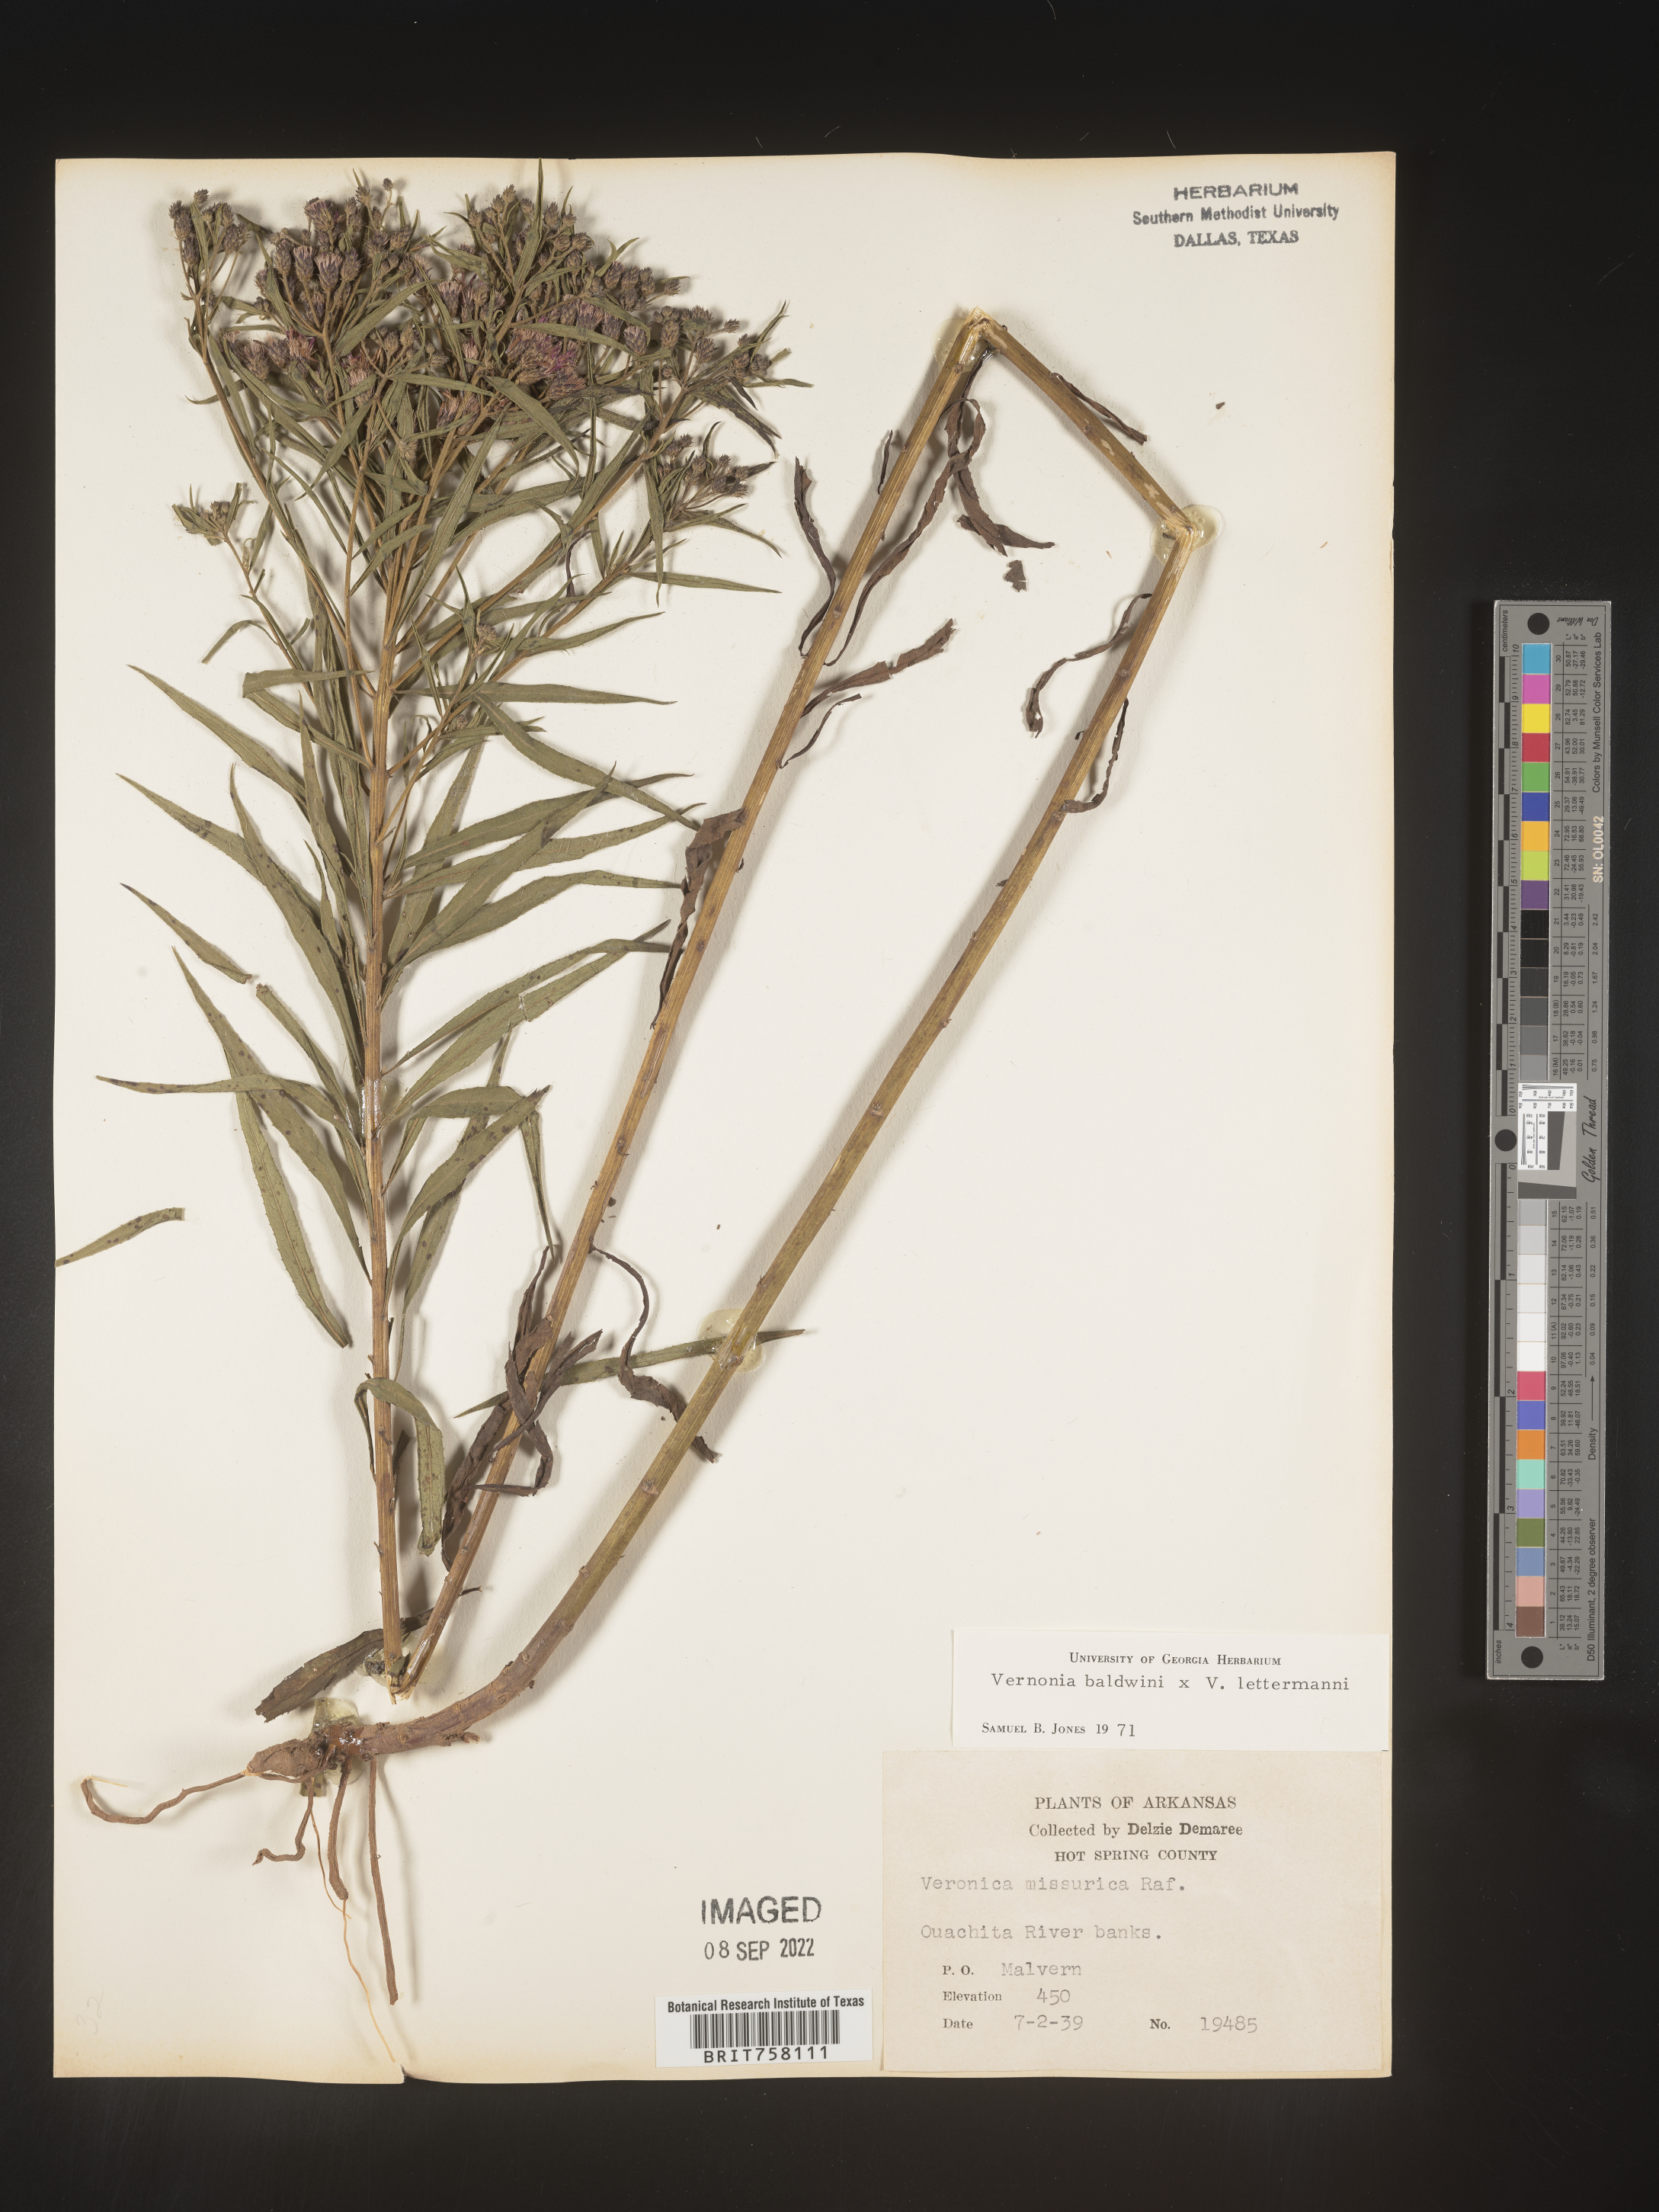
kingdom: Plantae
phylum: Tracheophyta
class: Magnoliopsida
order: Asterales
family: Asteraceae
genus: Vernonia
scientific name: Vernonia baldwinii
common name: Western ironweed
